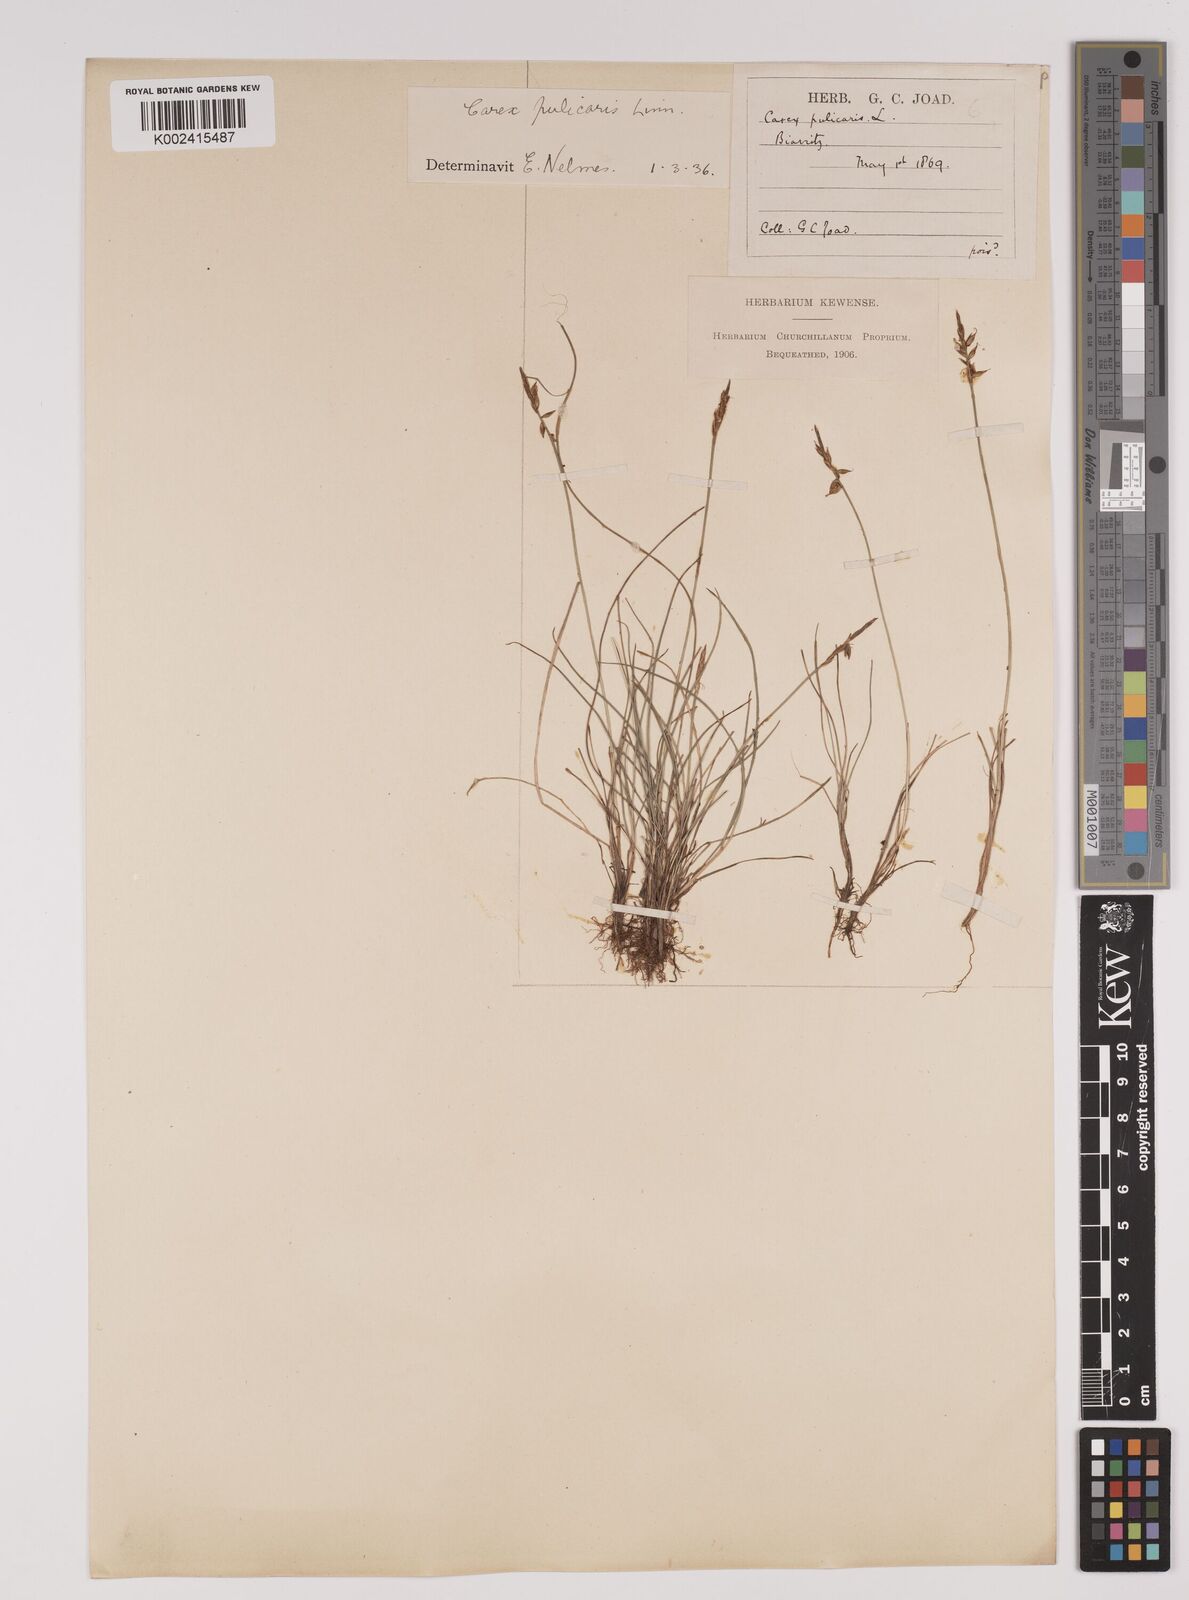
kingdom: Plantae
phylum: Tracheophyta
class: Liliopsida
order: Poales
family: Cyperaceae
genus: Carex
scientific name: Carex pulicaris
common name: Flea sedge
